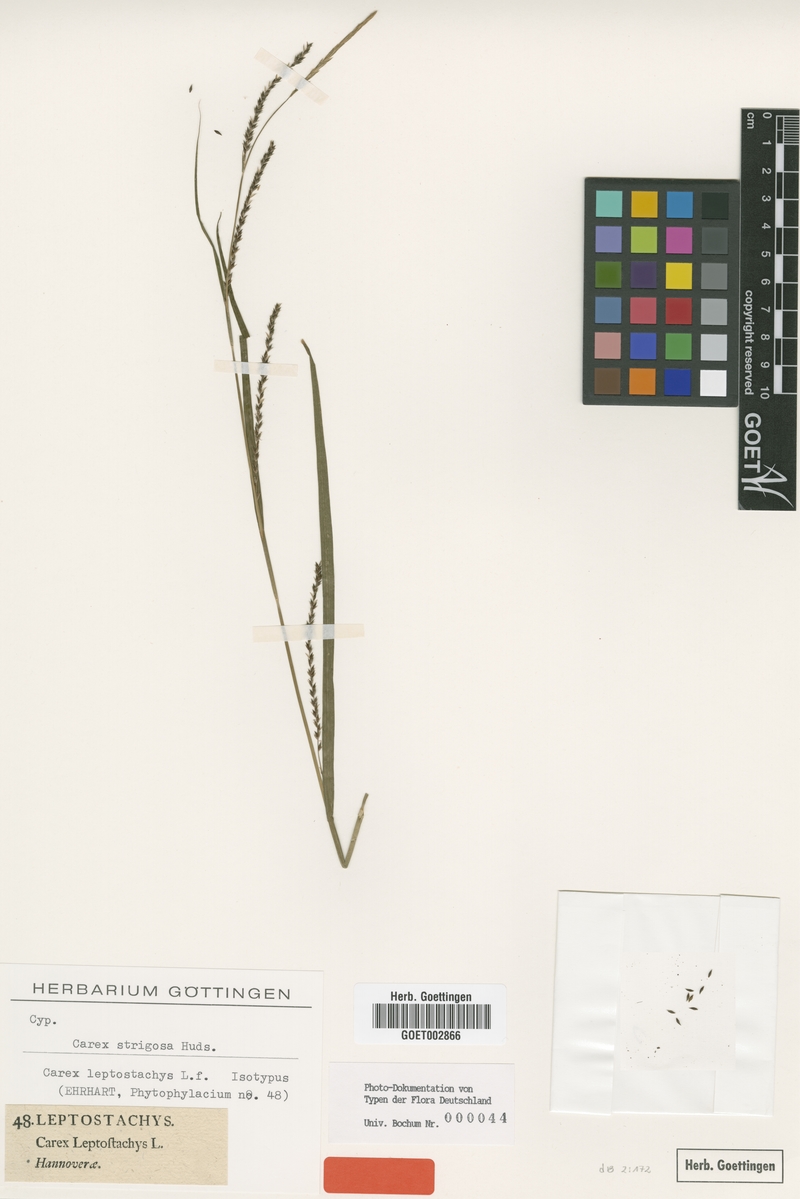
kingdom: Plantae
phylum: Tracheophyta
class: Liliopsida
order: Poales
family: Cyperaceae
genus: Carex
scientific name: Carex strigosa
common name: Thin-spiked wood-sedge
